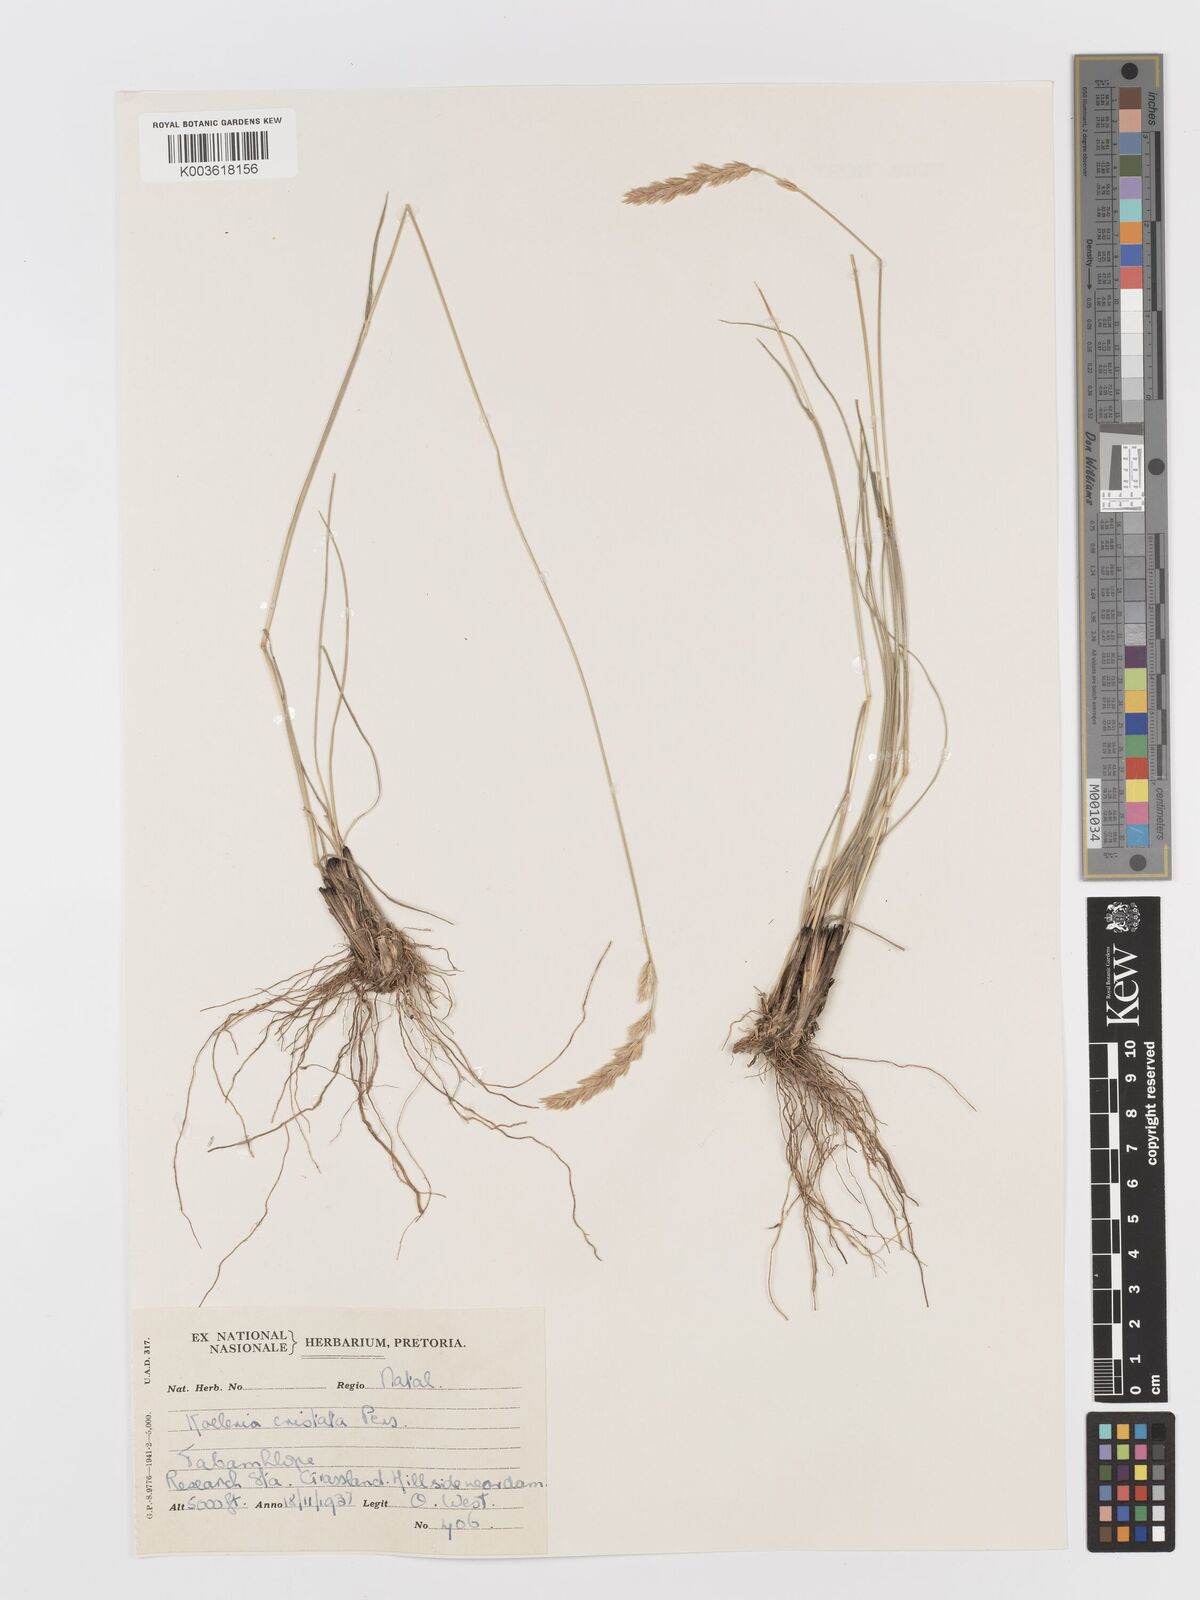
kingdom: Plantae
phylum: Tracheophyta
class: Liliopsida
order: Poales
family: Poaceae
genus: Koeleria
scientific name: Koeleria capensis
